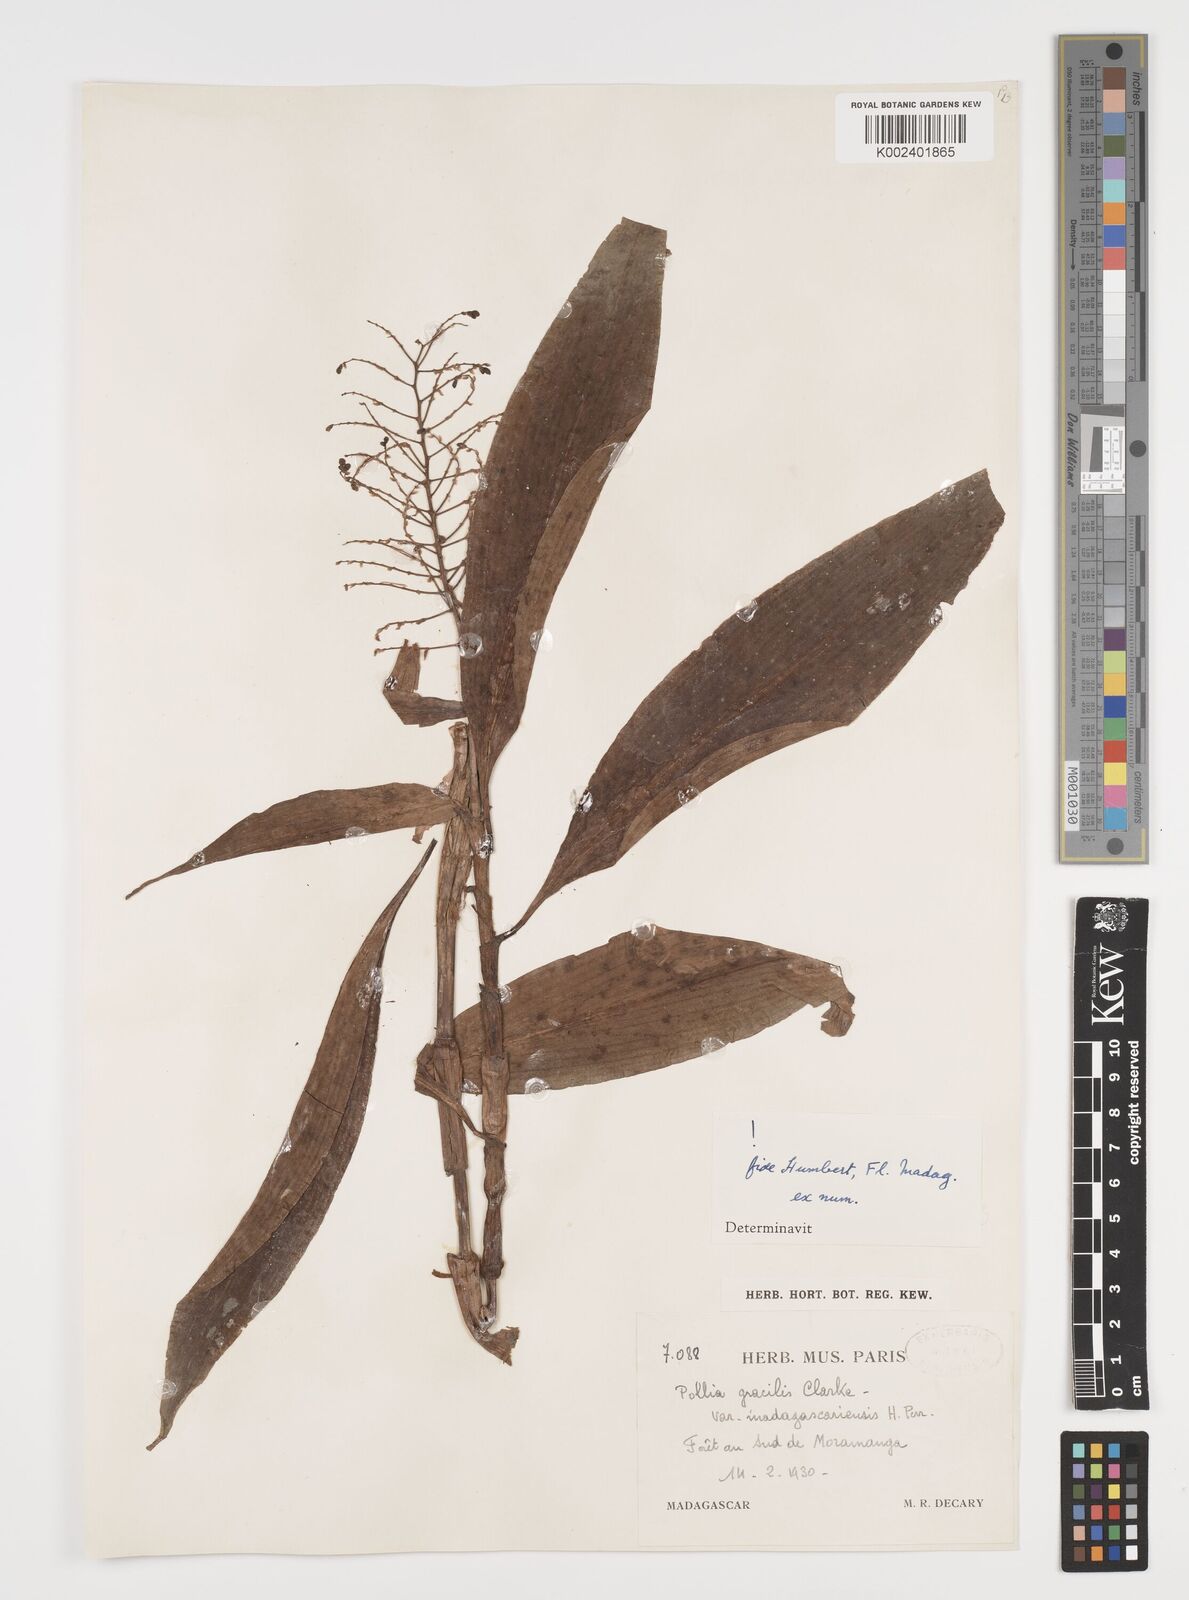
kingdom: Plantae
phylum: Tracheophyta
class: Liliopsida
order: Commelinales
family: Commelinaceae
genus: Pollia
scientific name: Pollia gracilis
